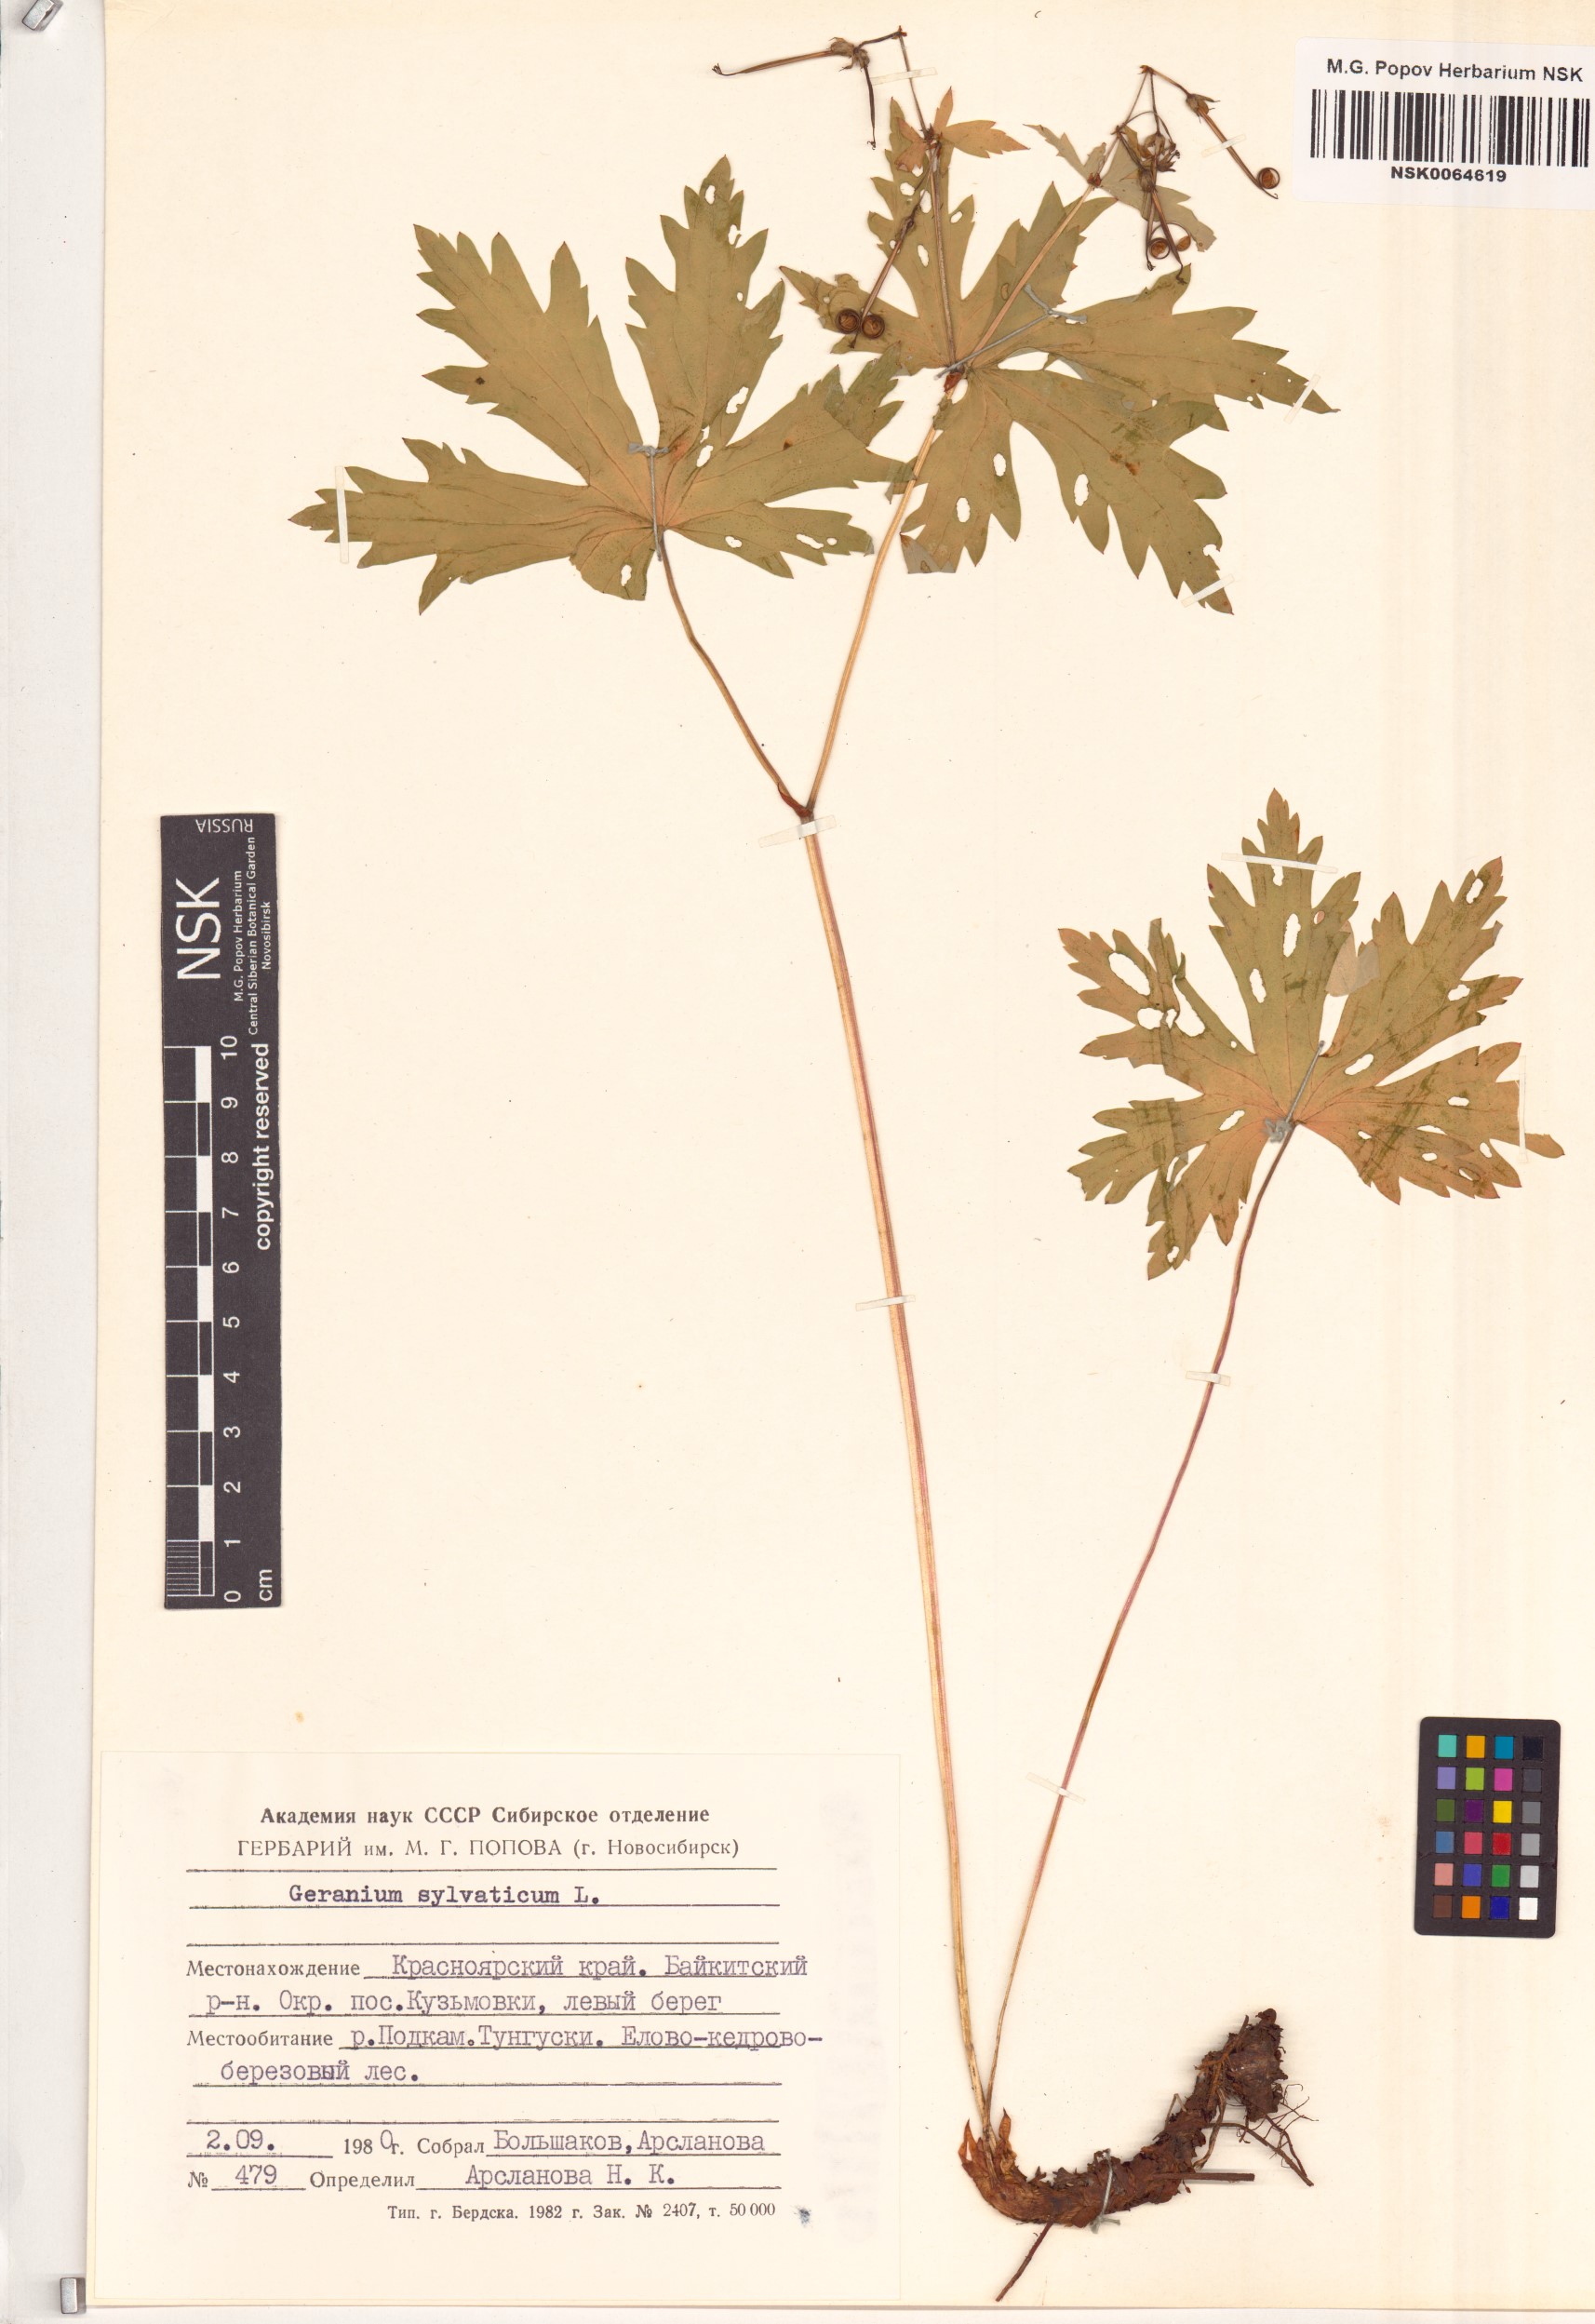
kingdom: Plantae
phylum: Tracheophyta
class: Magnoliopsida
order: Geraniales
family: Geraniaceae
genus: Geranium
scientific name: Geranium sylvaticum
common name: Wood crane's-bill
